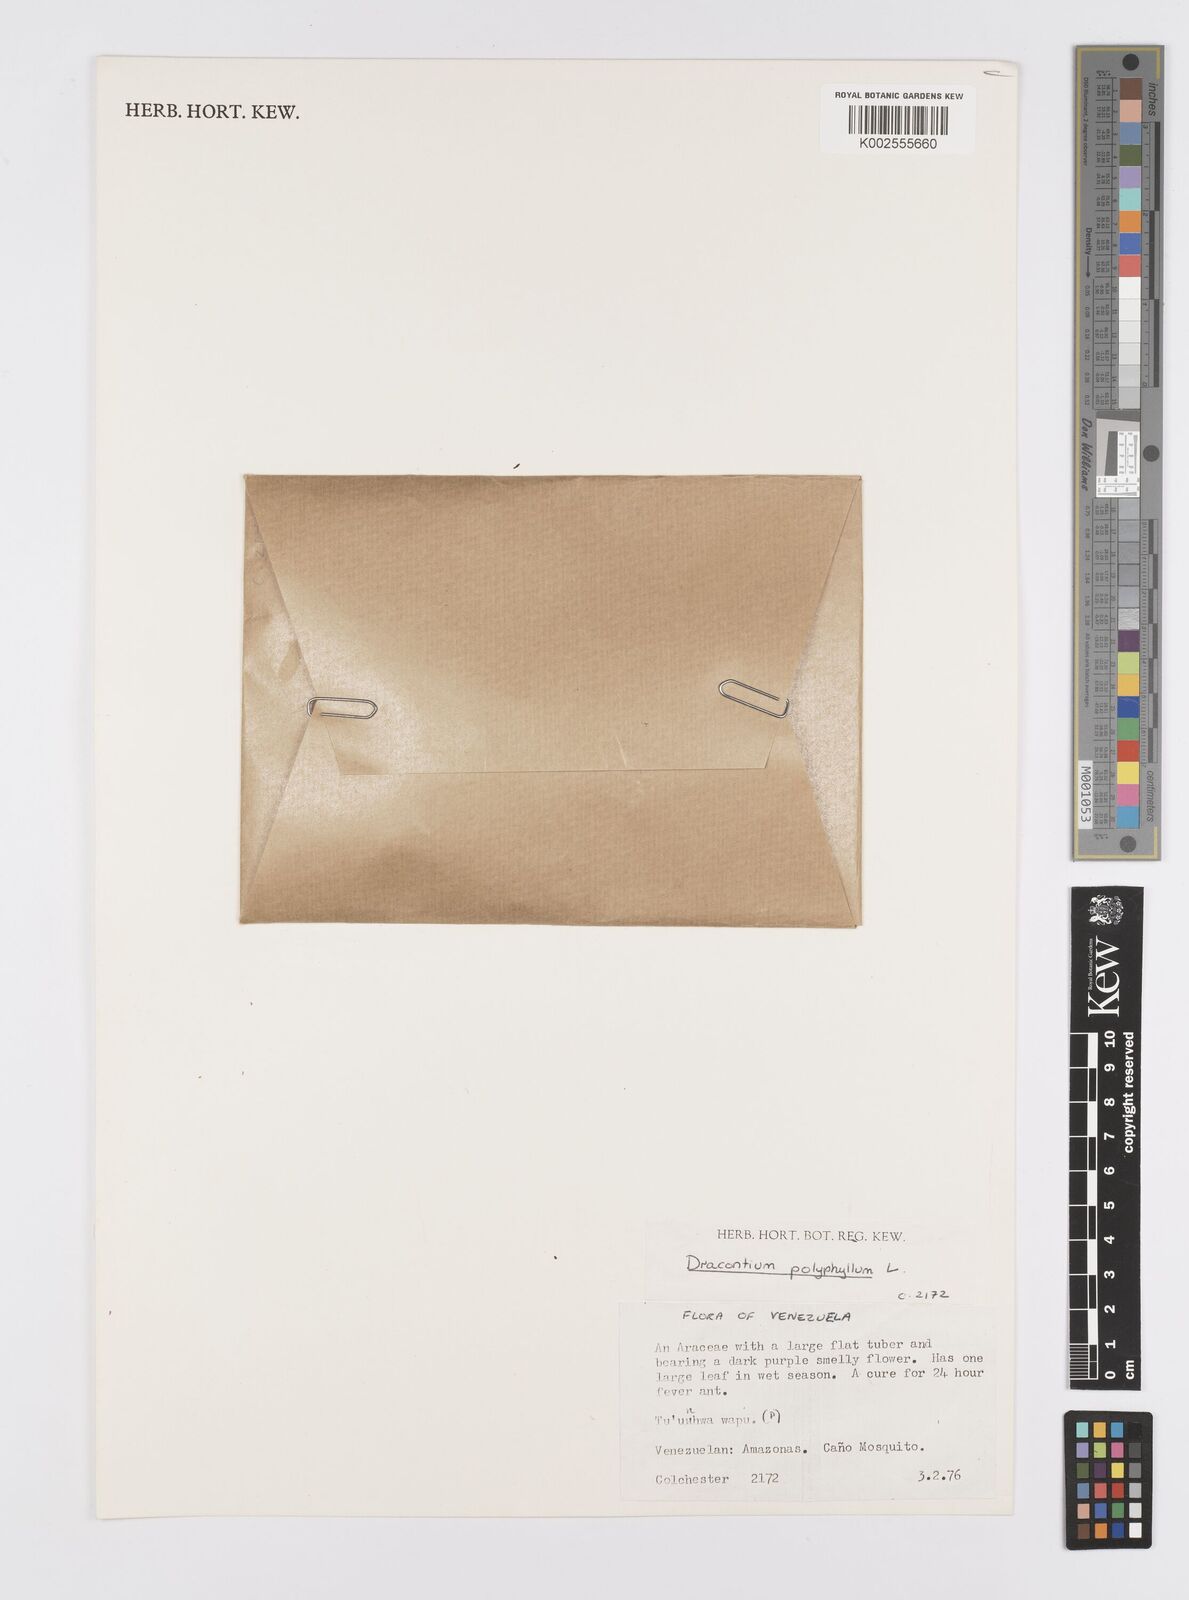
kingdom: Plantae
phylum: Tracheophyta
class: Liliopsida
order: Alismatales
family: Araceae
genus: Dracontium
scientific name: Dracontium polyphyllum
